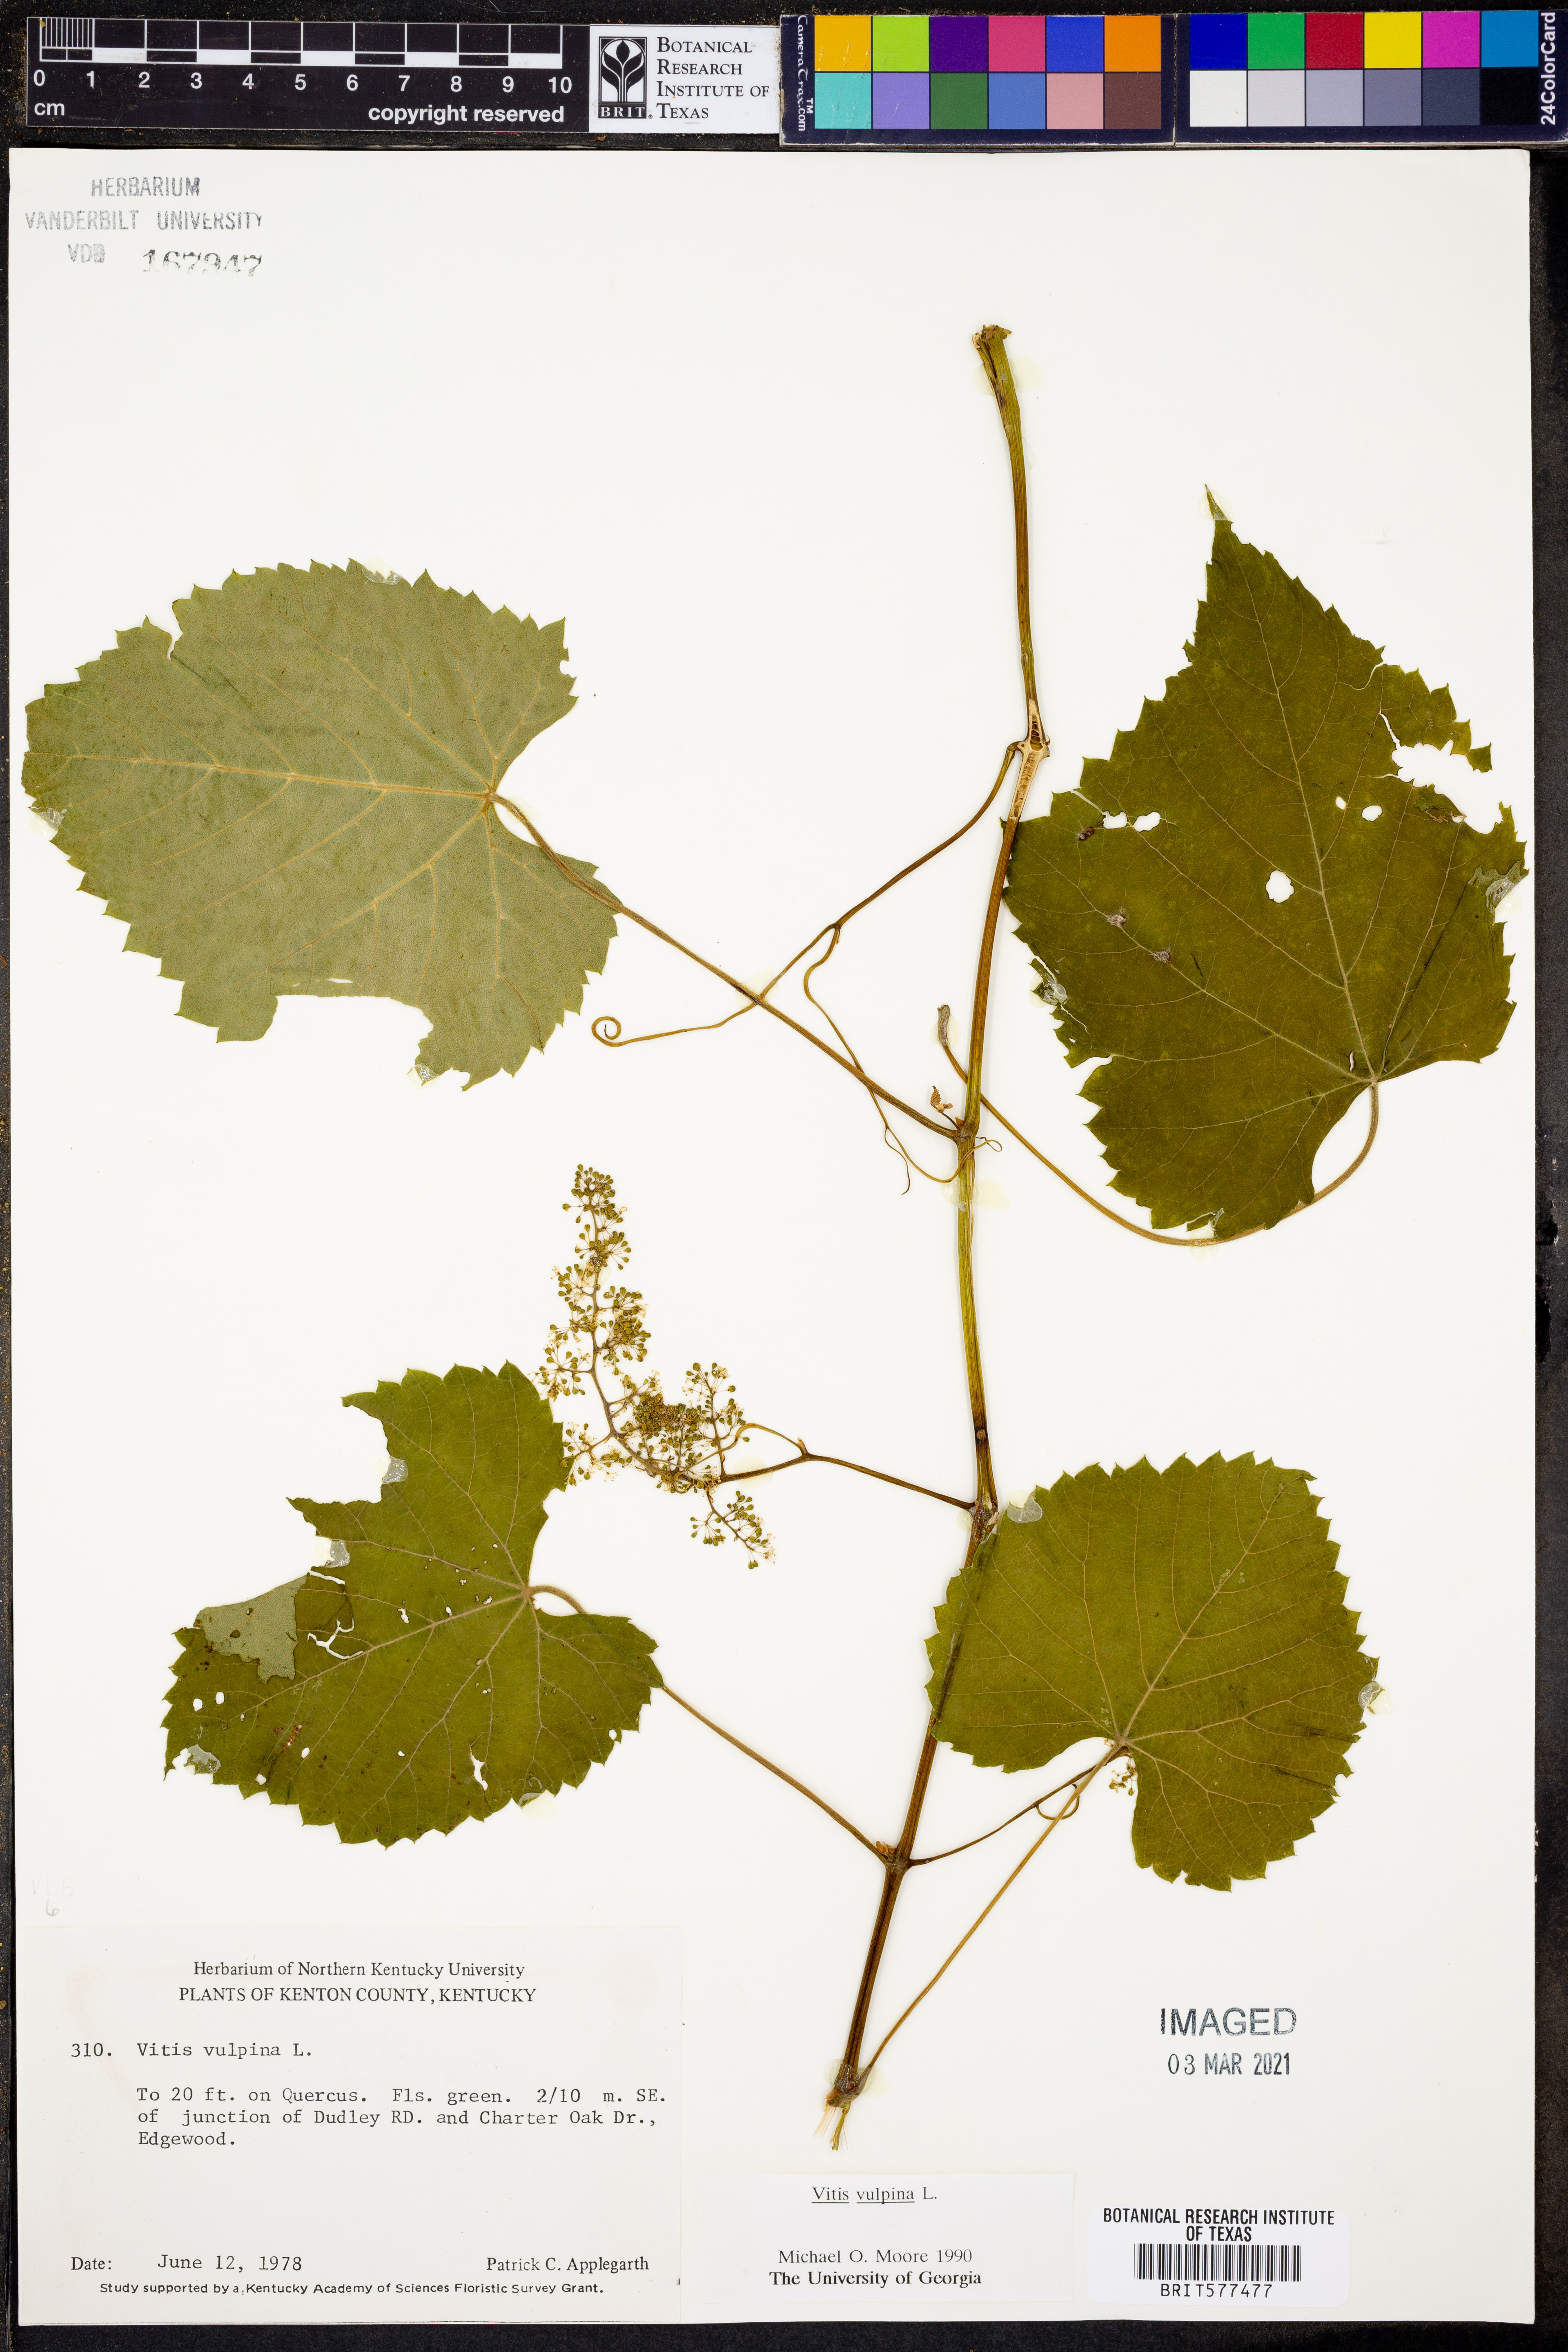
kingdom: Plantae
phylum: Tracheophyta
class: Magnoliopsida
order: Vitales
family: Vitaceae
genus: Vitis
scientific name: Vitis vulpina
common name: Frost grape
